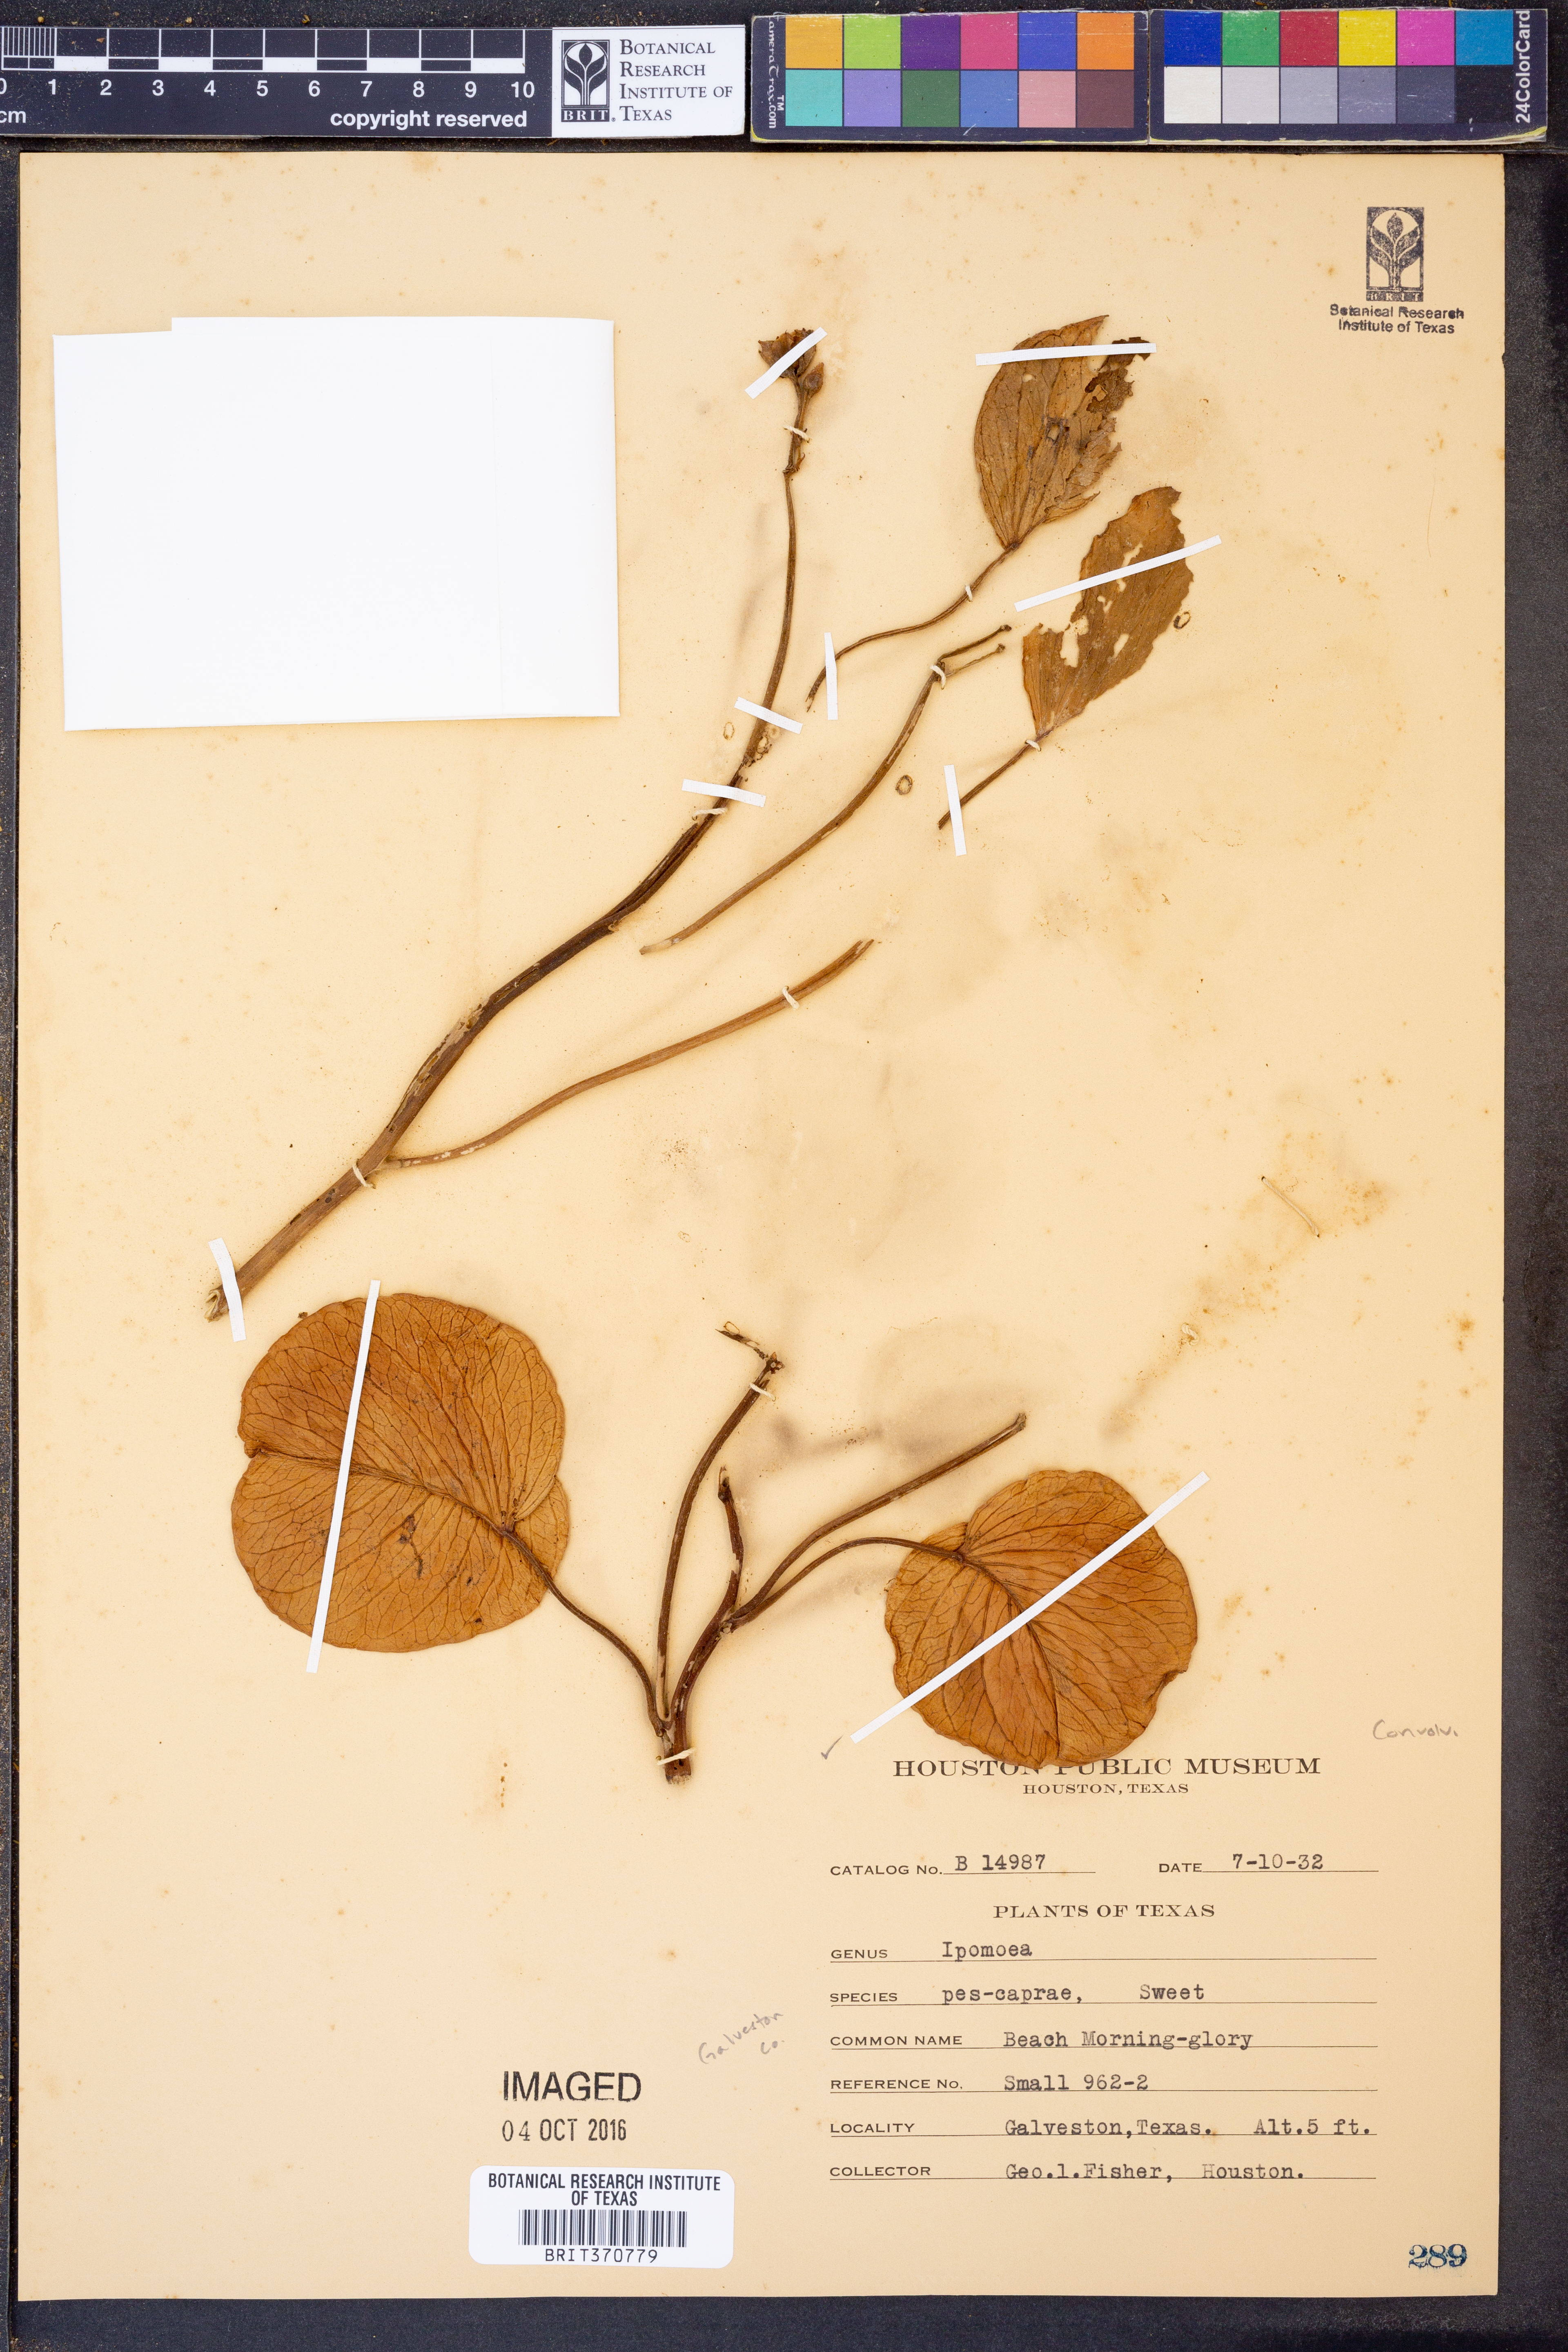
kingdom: Plantae
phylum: Tracheophyta
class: Magnoliopsida
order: Solanales
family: Convolvulaceae
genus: Ipomoea
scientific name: Ipomoea pes-caprae
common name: Beach morning glory
